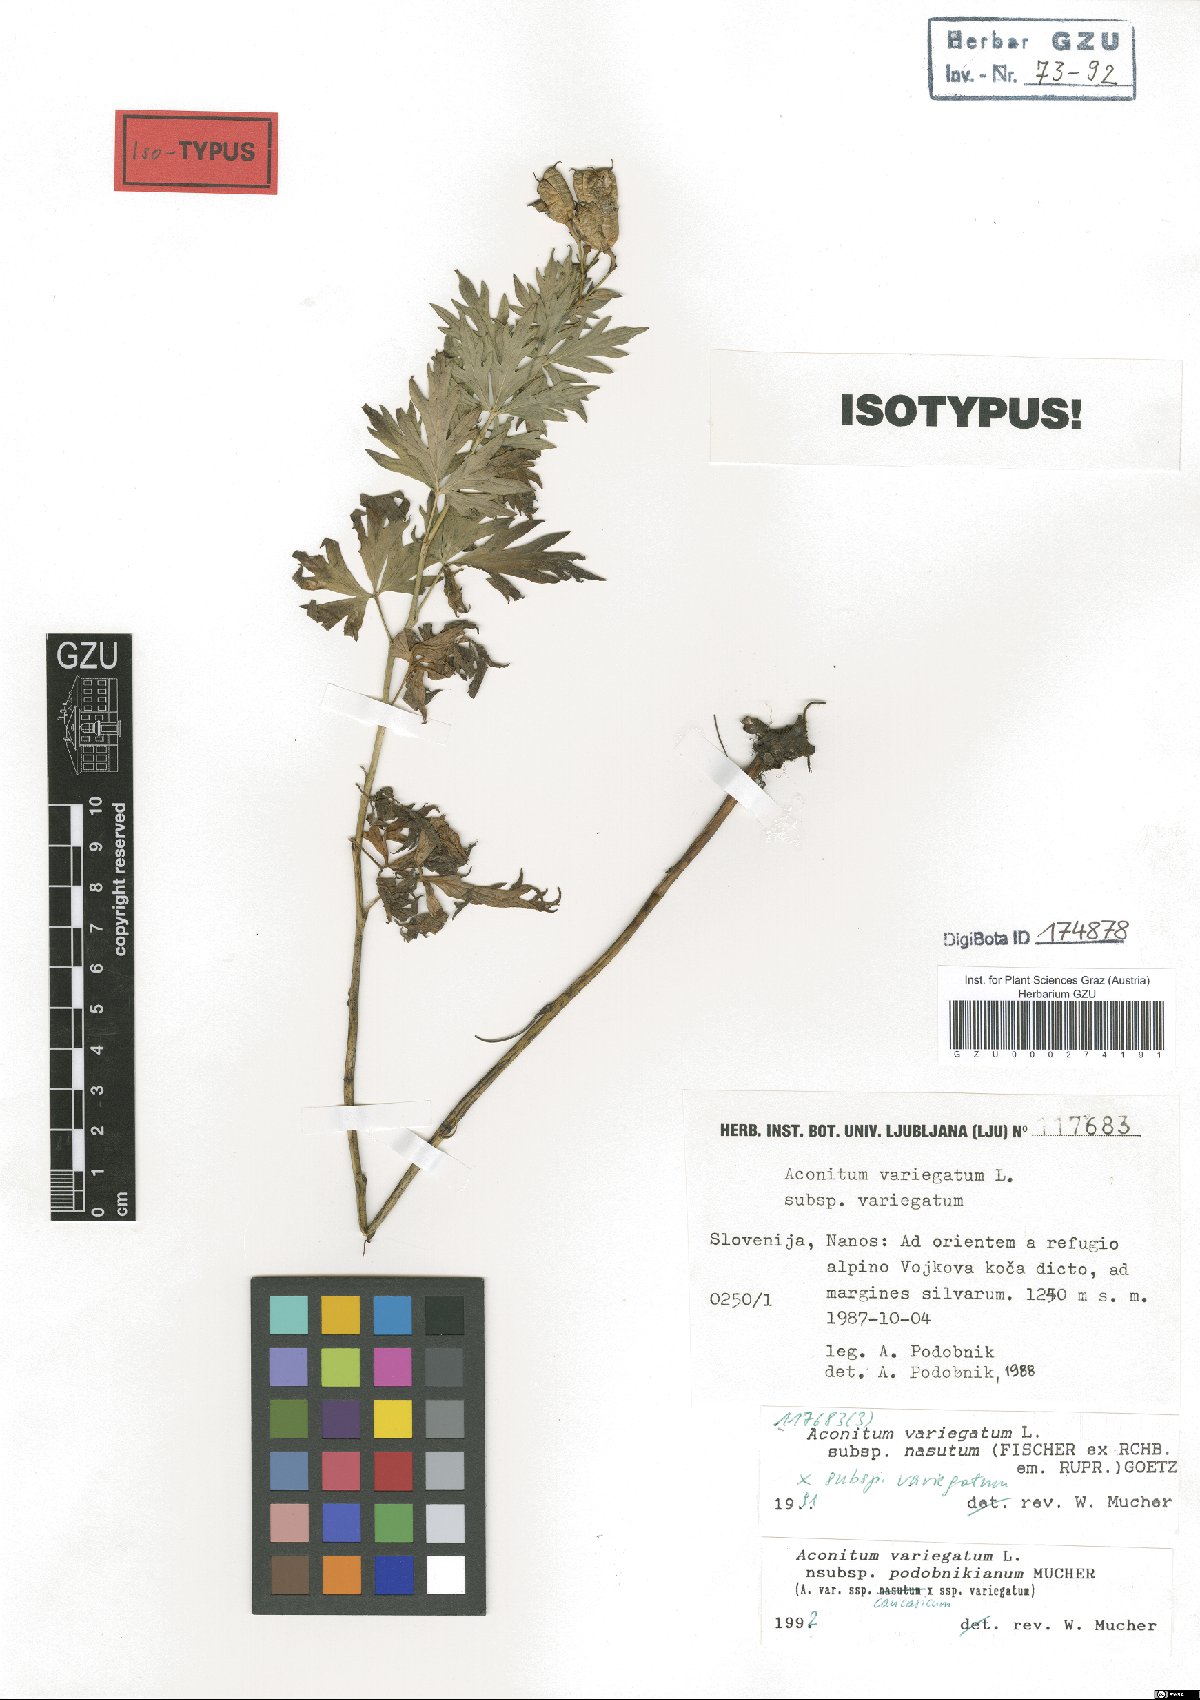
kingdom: Plantae
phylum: Tracheophyta
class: Magnoliopsida
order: Ranunculales
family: Ranunculaceae
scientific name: Ranunculaceae
